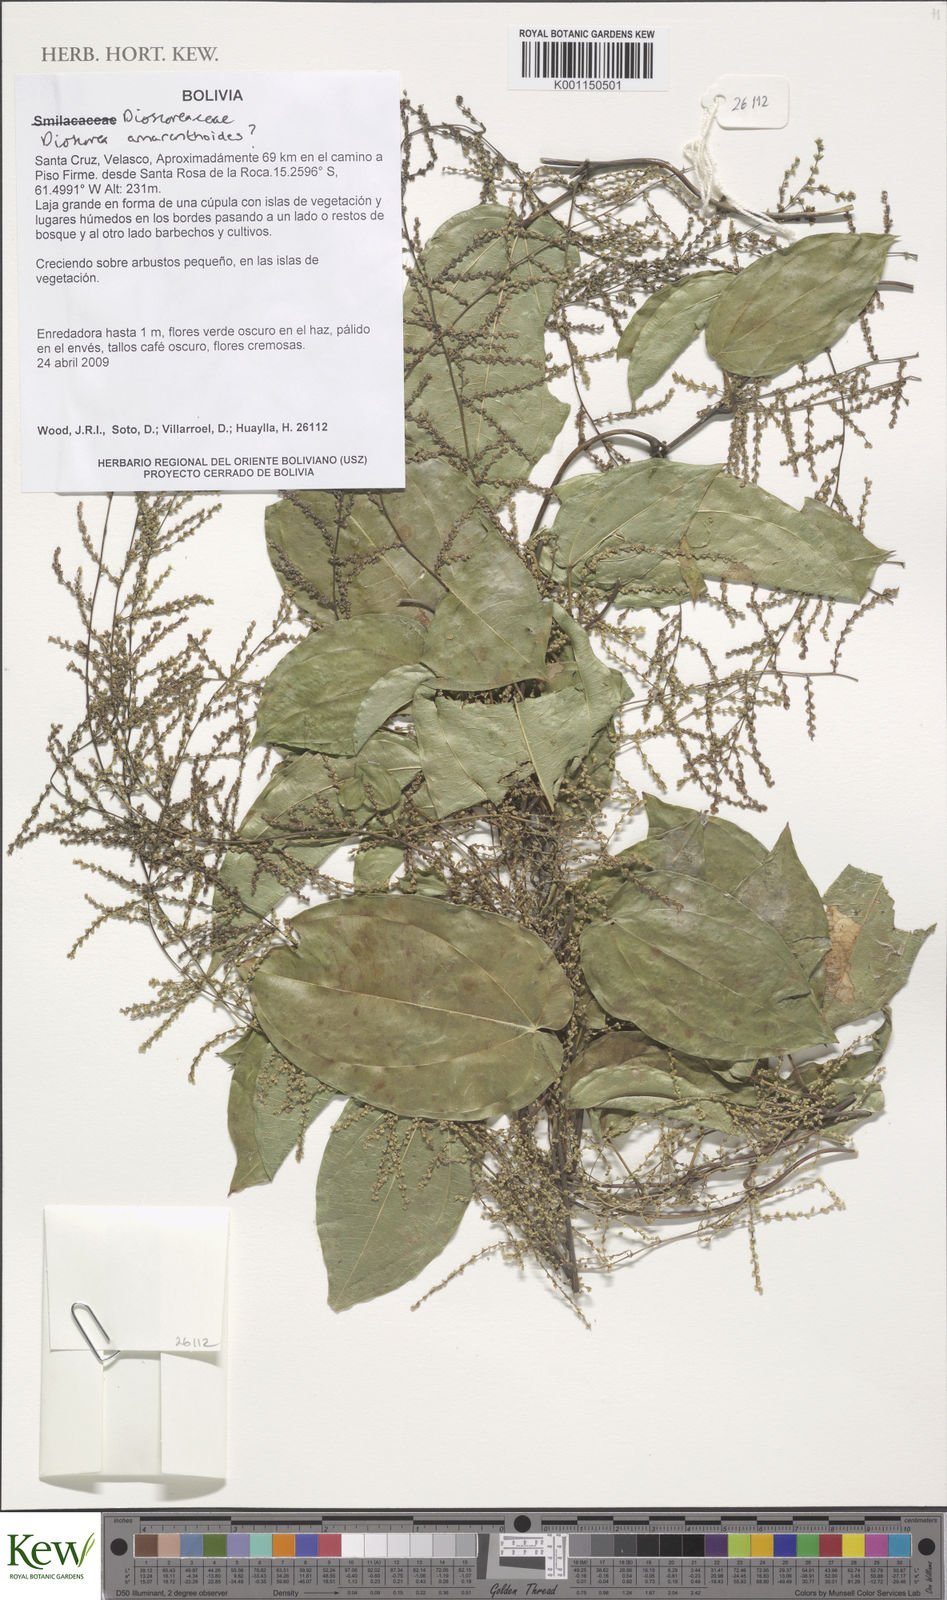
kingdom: Plantae
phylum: Tracheophyta
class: Liliopsida
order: Dioscoreales
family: Dioscoreaceae
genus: Dioscorea
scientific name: Dioscorea amaranthoides
